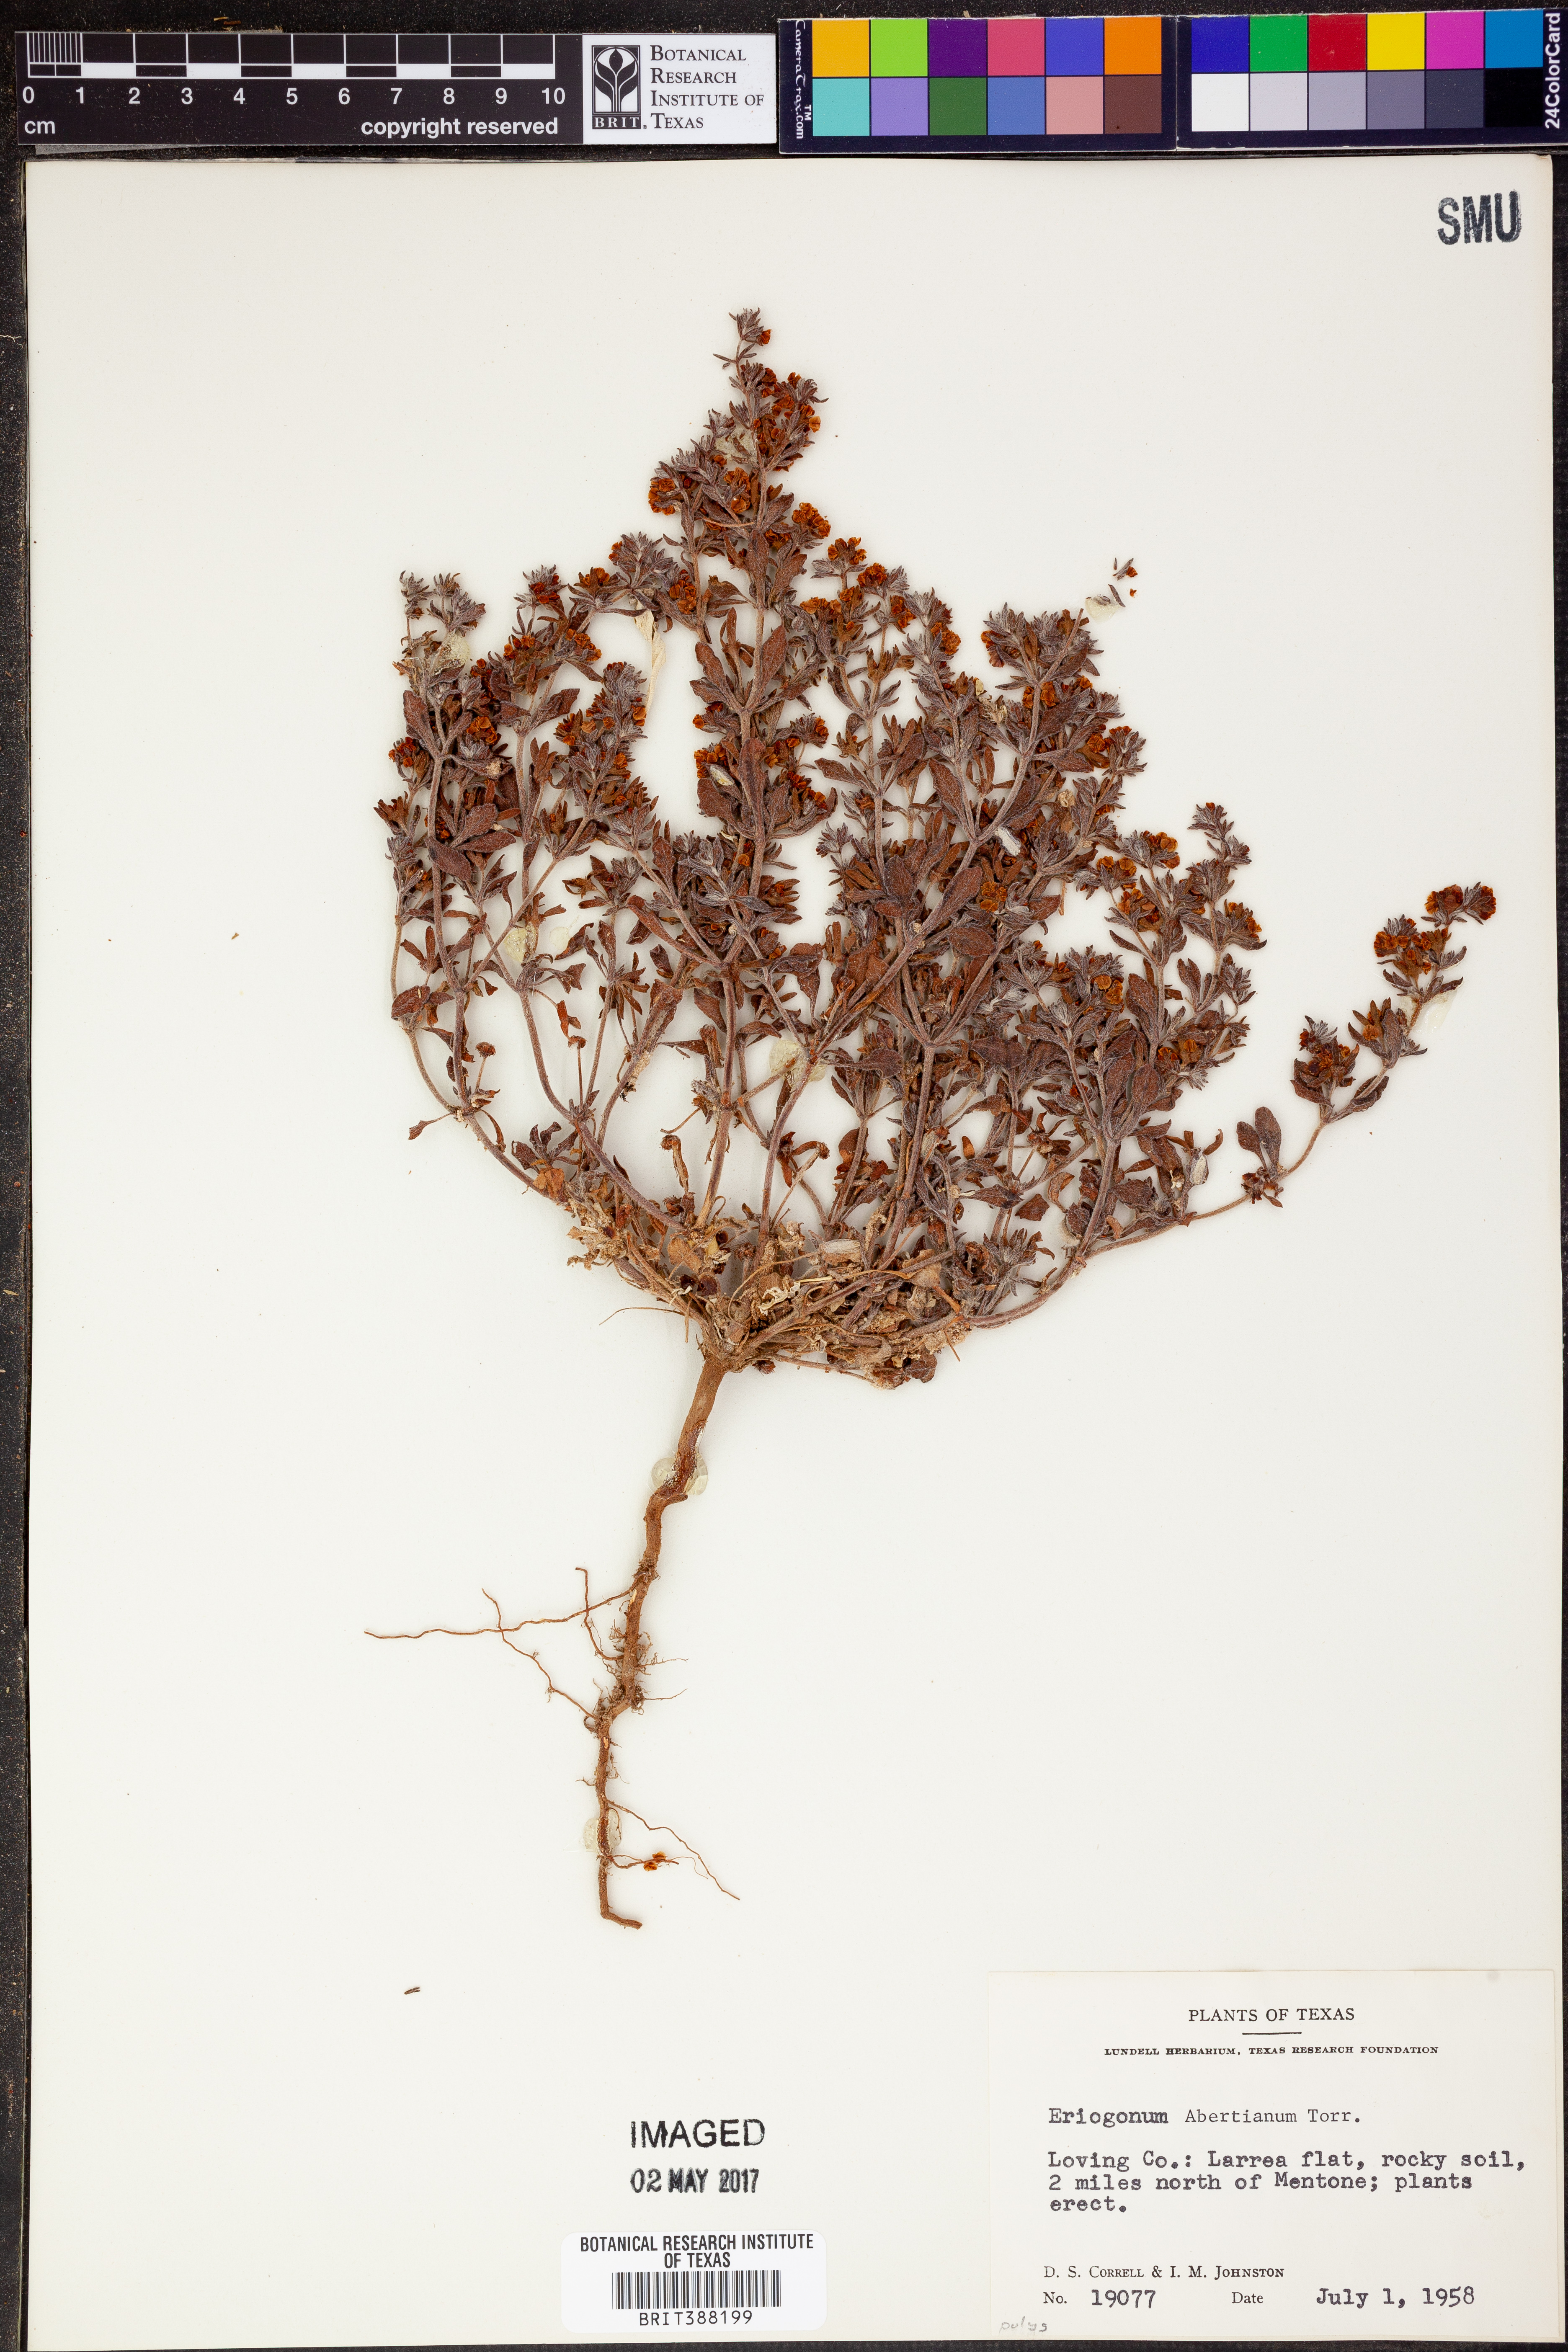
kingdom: Plantae
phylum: Tracheophyta
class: Magnoliopsida
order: Caryophyllales
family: Polygonaceae
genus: Eriogonum
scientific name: Eriogonum abertianum
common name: Abert's wild buckwheat
